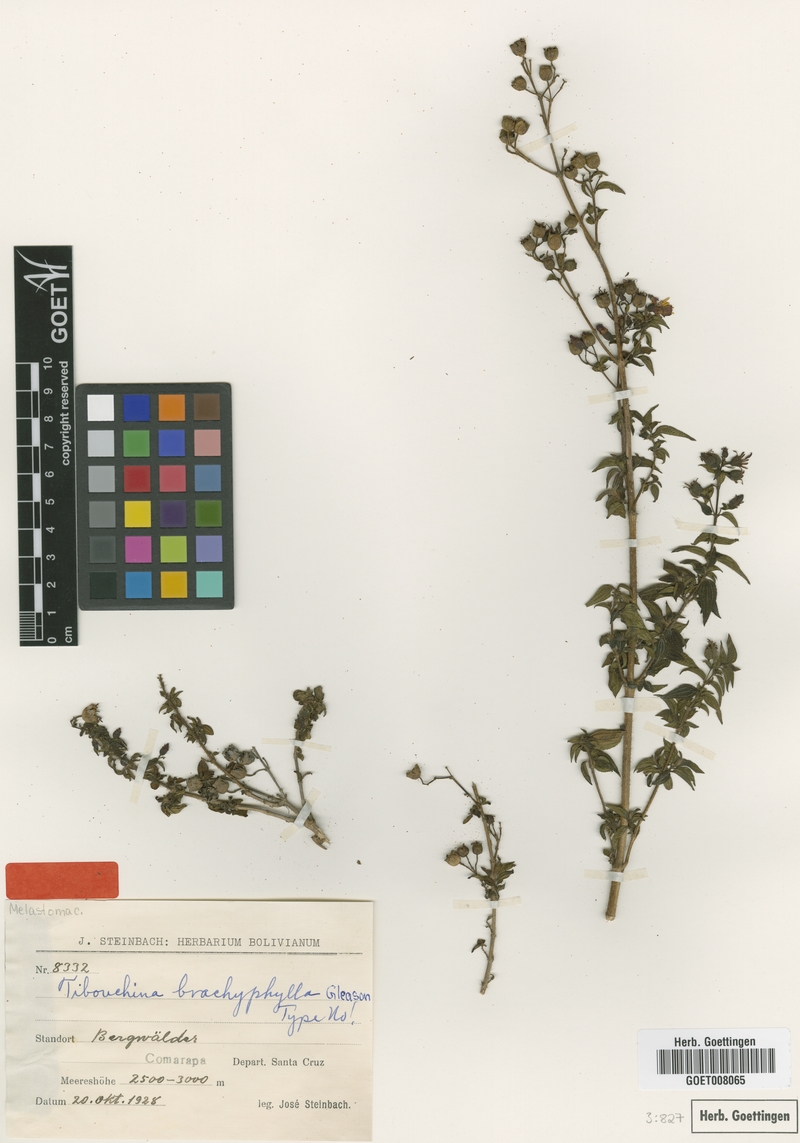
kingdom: Plantae
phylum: Tracheophyta
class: Magnoliopsida
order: Myrtales
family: Melastomataceae
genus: Chaetogastra
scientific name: Chaetogastra brachyphylla
